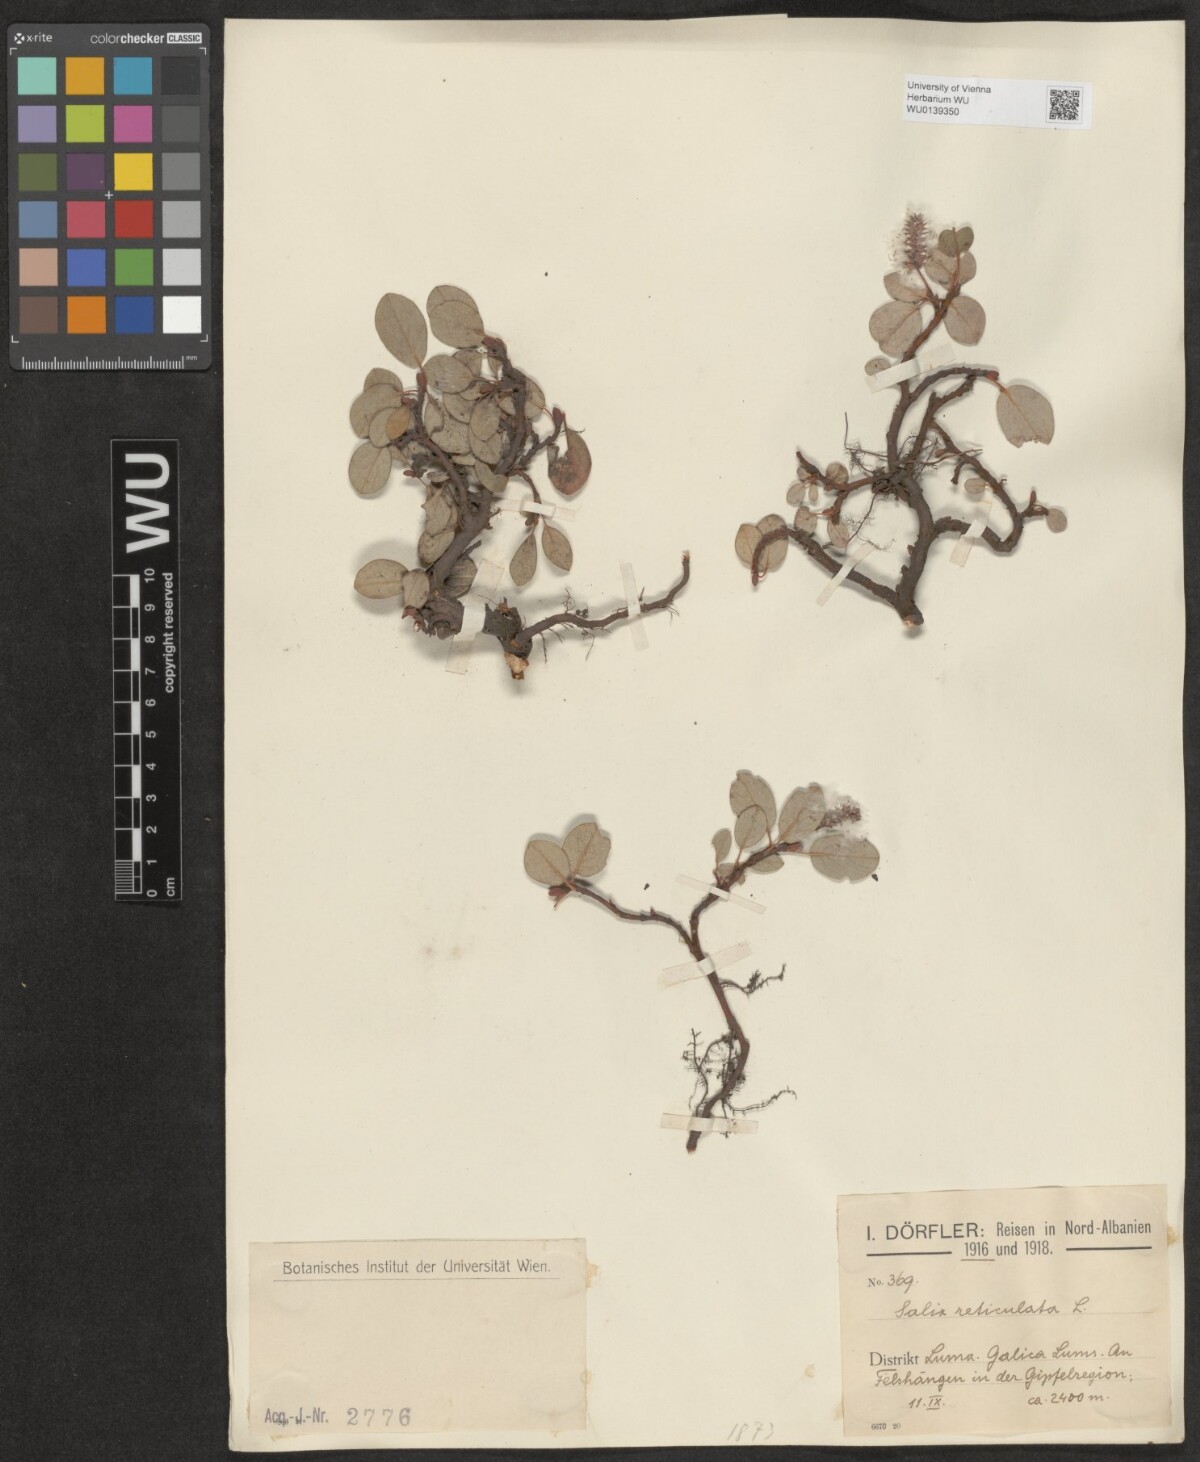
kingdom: Plantae
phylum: Tracheophyta
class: Magnoliopsida
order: Malpighiales
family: Salicaceae
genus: Salix
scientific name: Salix reticulata
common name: Net-leaved willow
